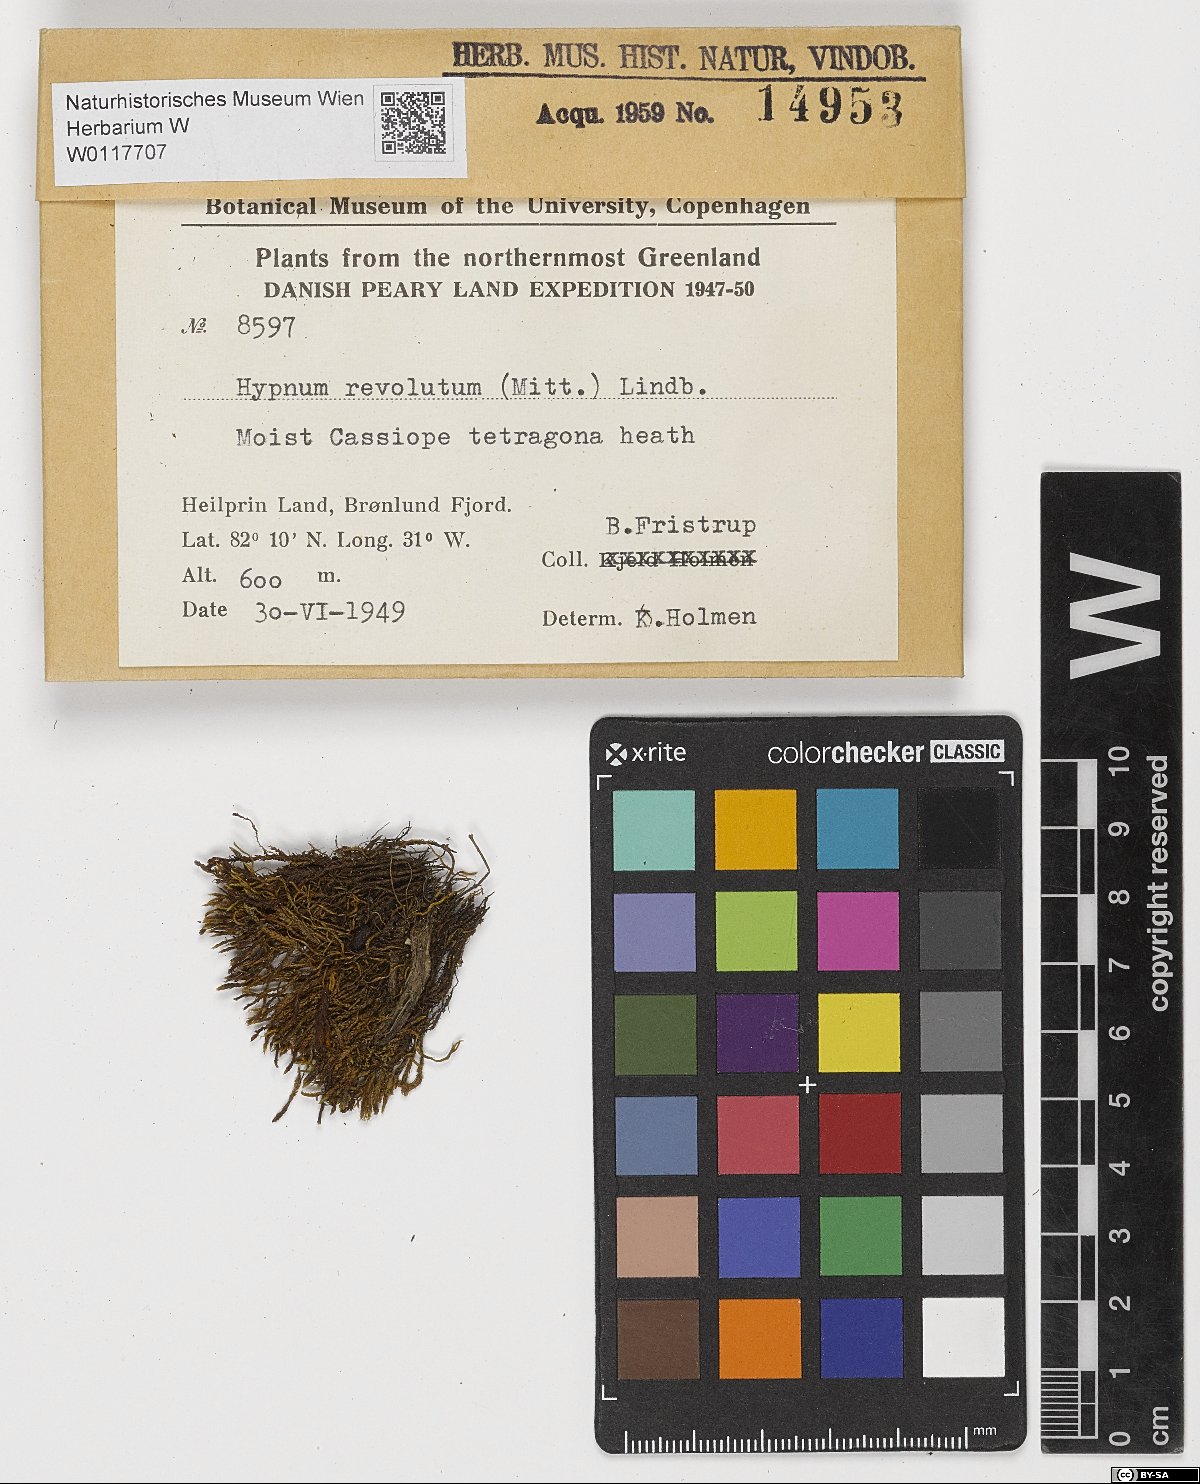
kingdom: Plantae
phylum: Bryophyta
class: Bryopsida
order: Hypnales
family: Pylaisiaceae
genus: Roaldia
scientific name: Roaldia revoluta
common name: Revolute plait-moss
